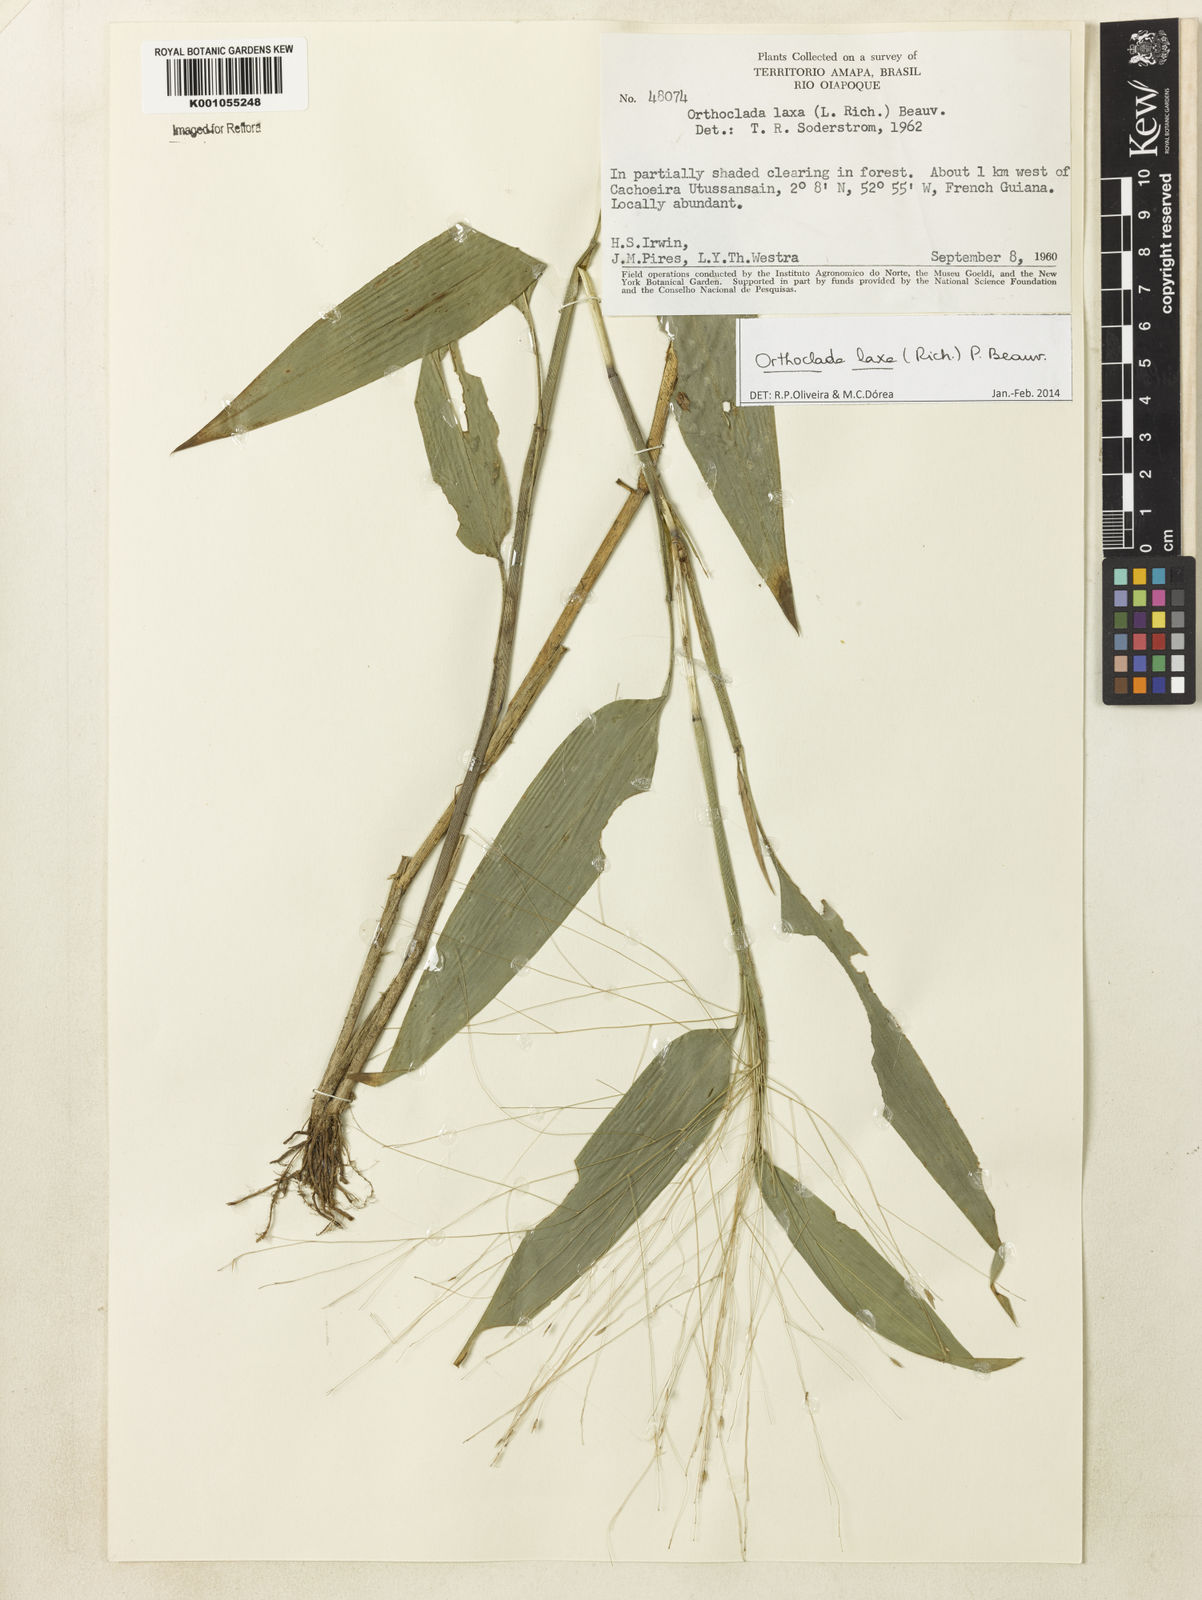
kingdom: Plantae
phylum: Tracheophyta
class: Liliopsida
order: Poales
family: Poaceae
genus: Orthoclada
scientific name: Orthoclada laxa
